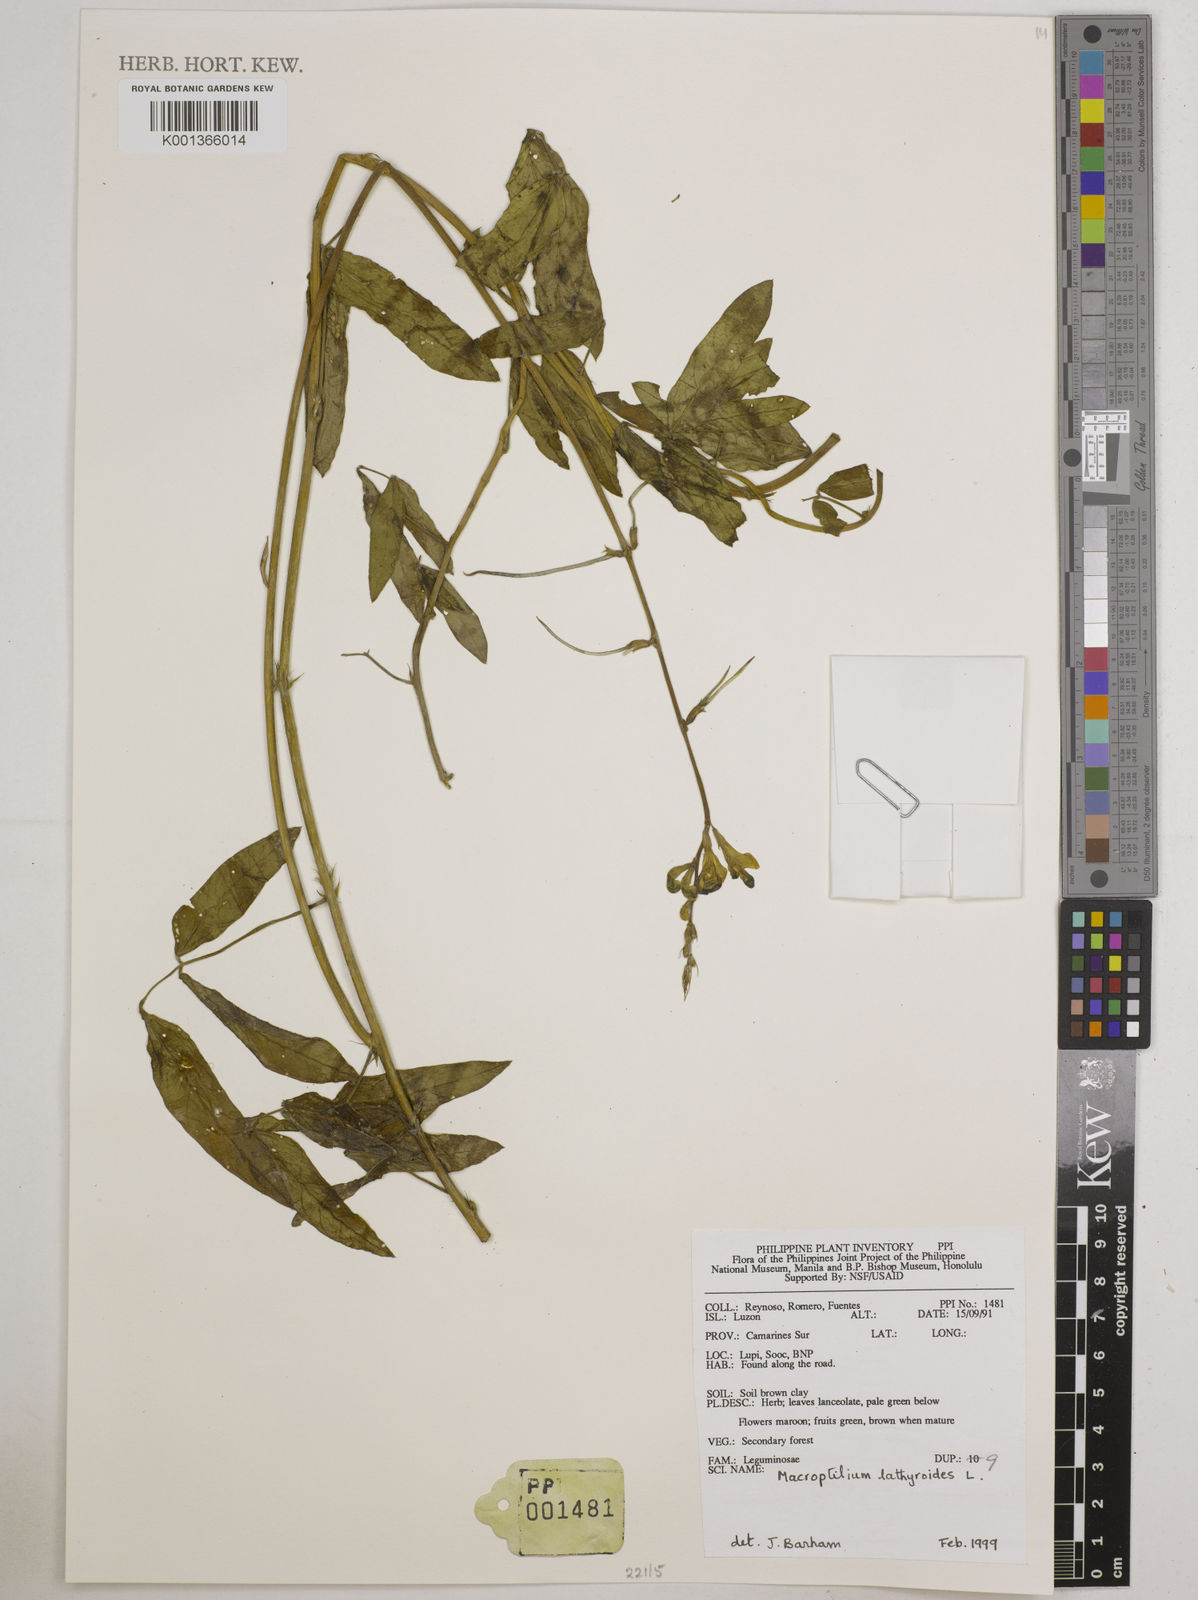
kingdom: Plantae
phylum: Tracheophyta
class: Magnoliopsida
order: Fabales
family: Fabaceae
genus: Macroptilium
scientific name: Macroptilium lathyroides
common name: Wild bushbean
